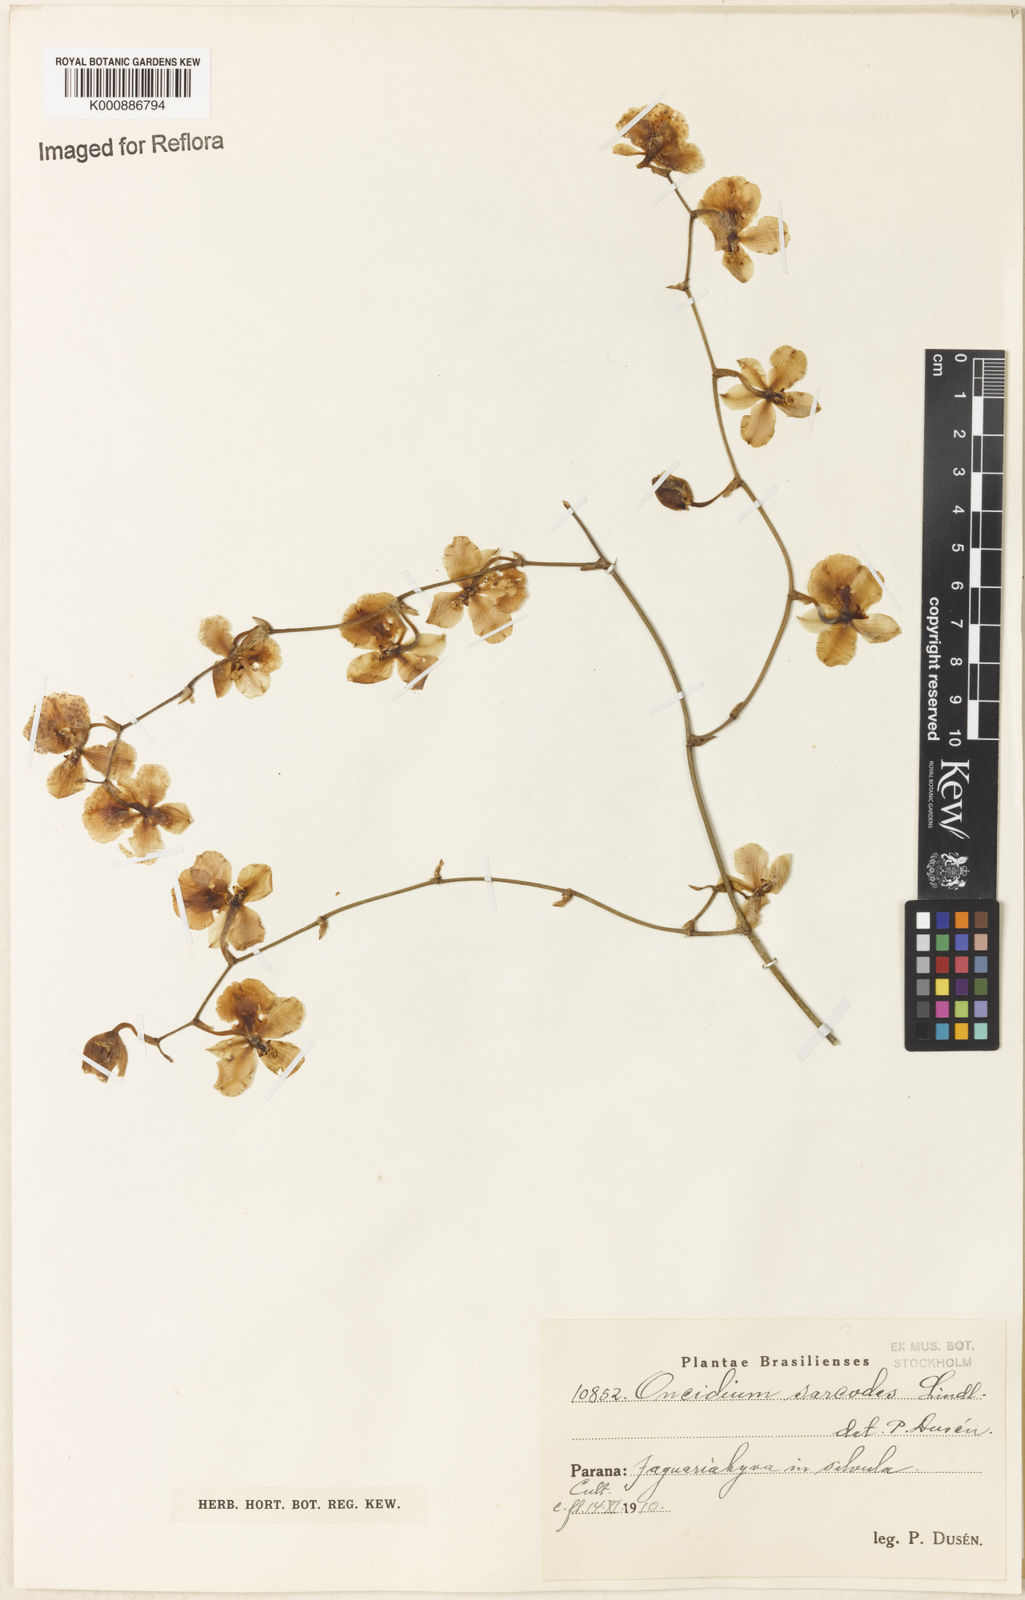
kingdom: Plantae
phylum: Tracheophyta
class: Liliopsida
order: Asparagales
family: Orchidaceae
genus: Gomesa
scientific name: Gomesa sarcodes
